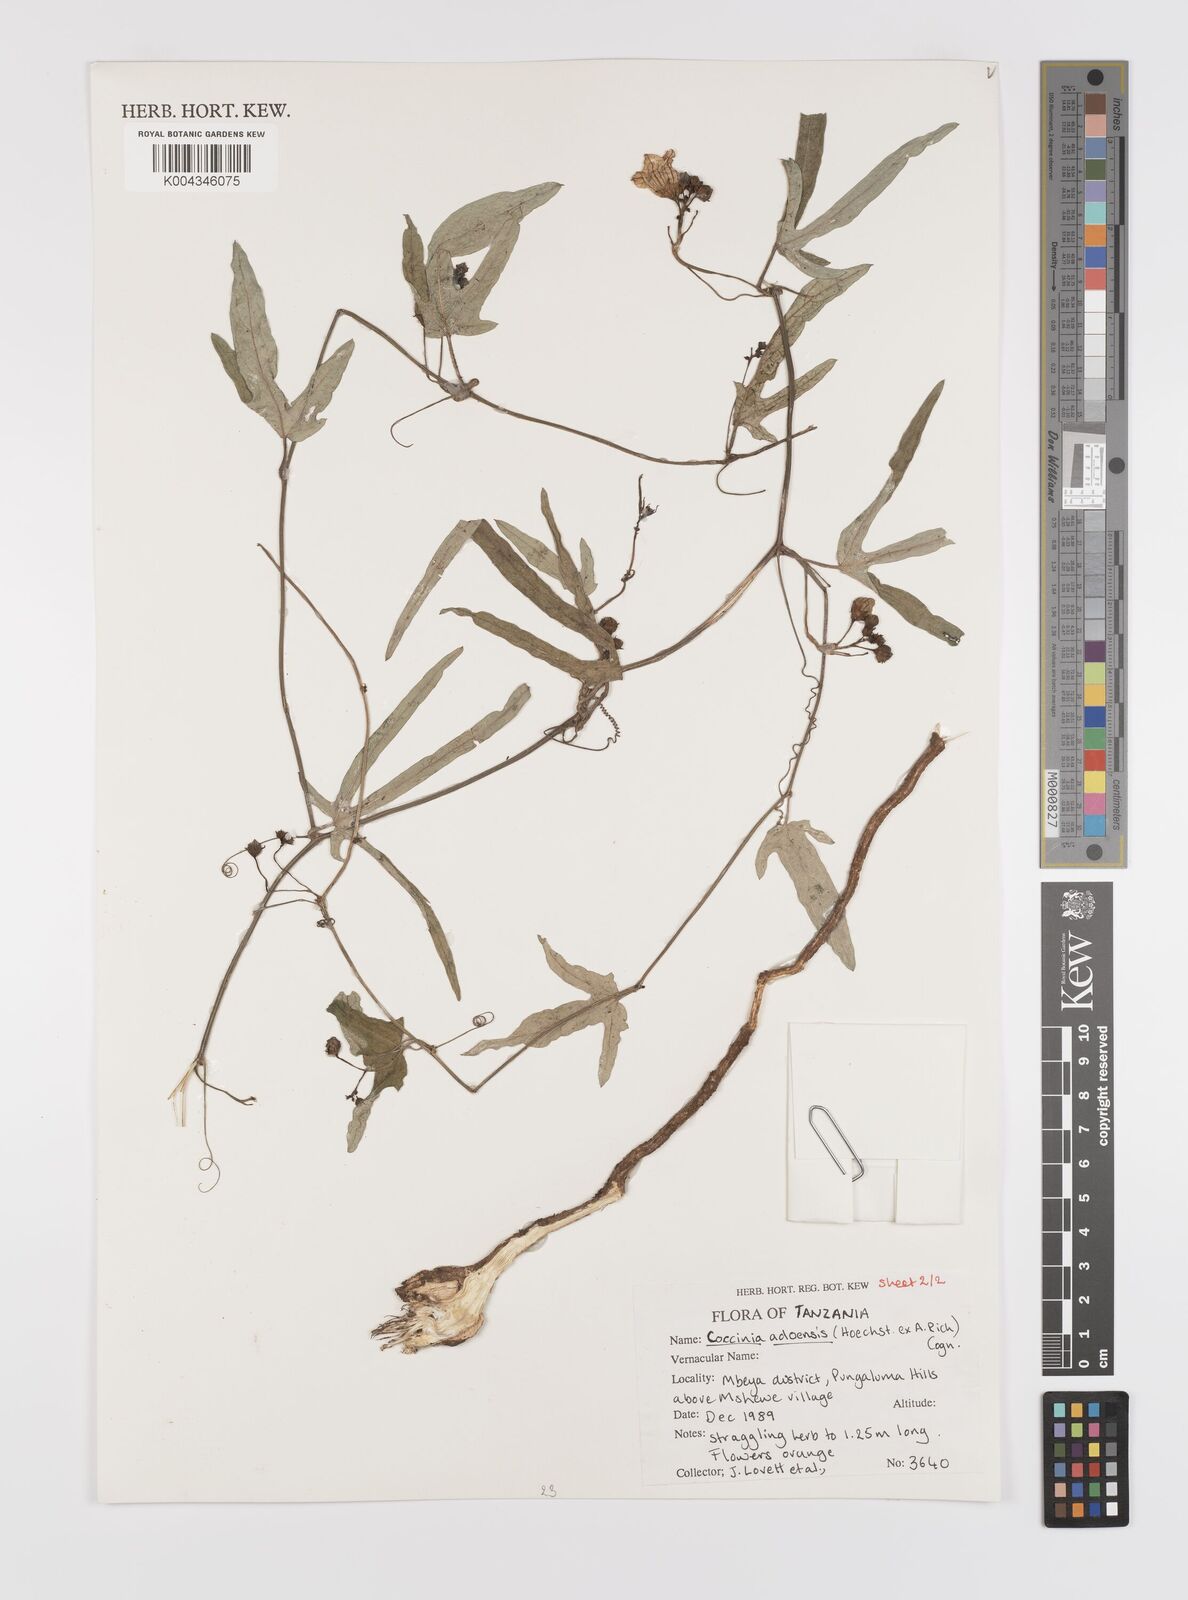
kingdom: Plantae
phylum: Tracheophyta
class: Magnoliopsida
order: Cucurbitales
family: Cucurbitaceae
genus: Coccinia
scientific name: Coccinia adoensis
